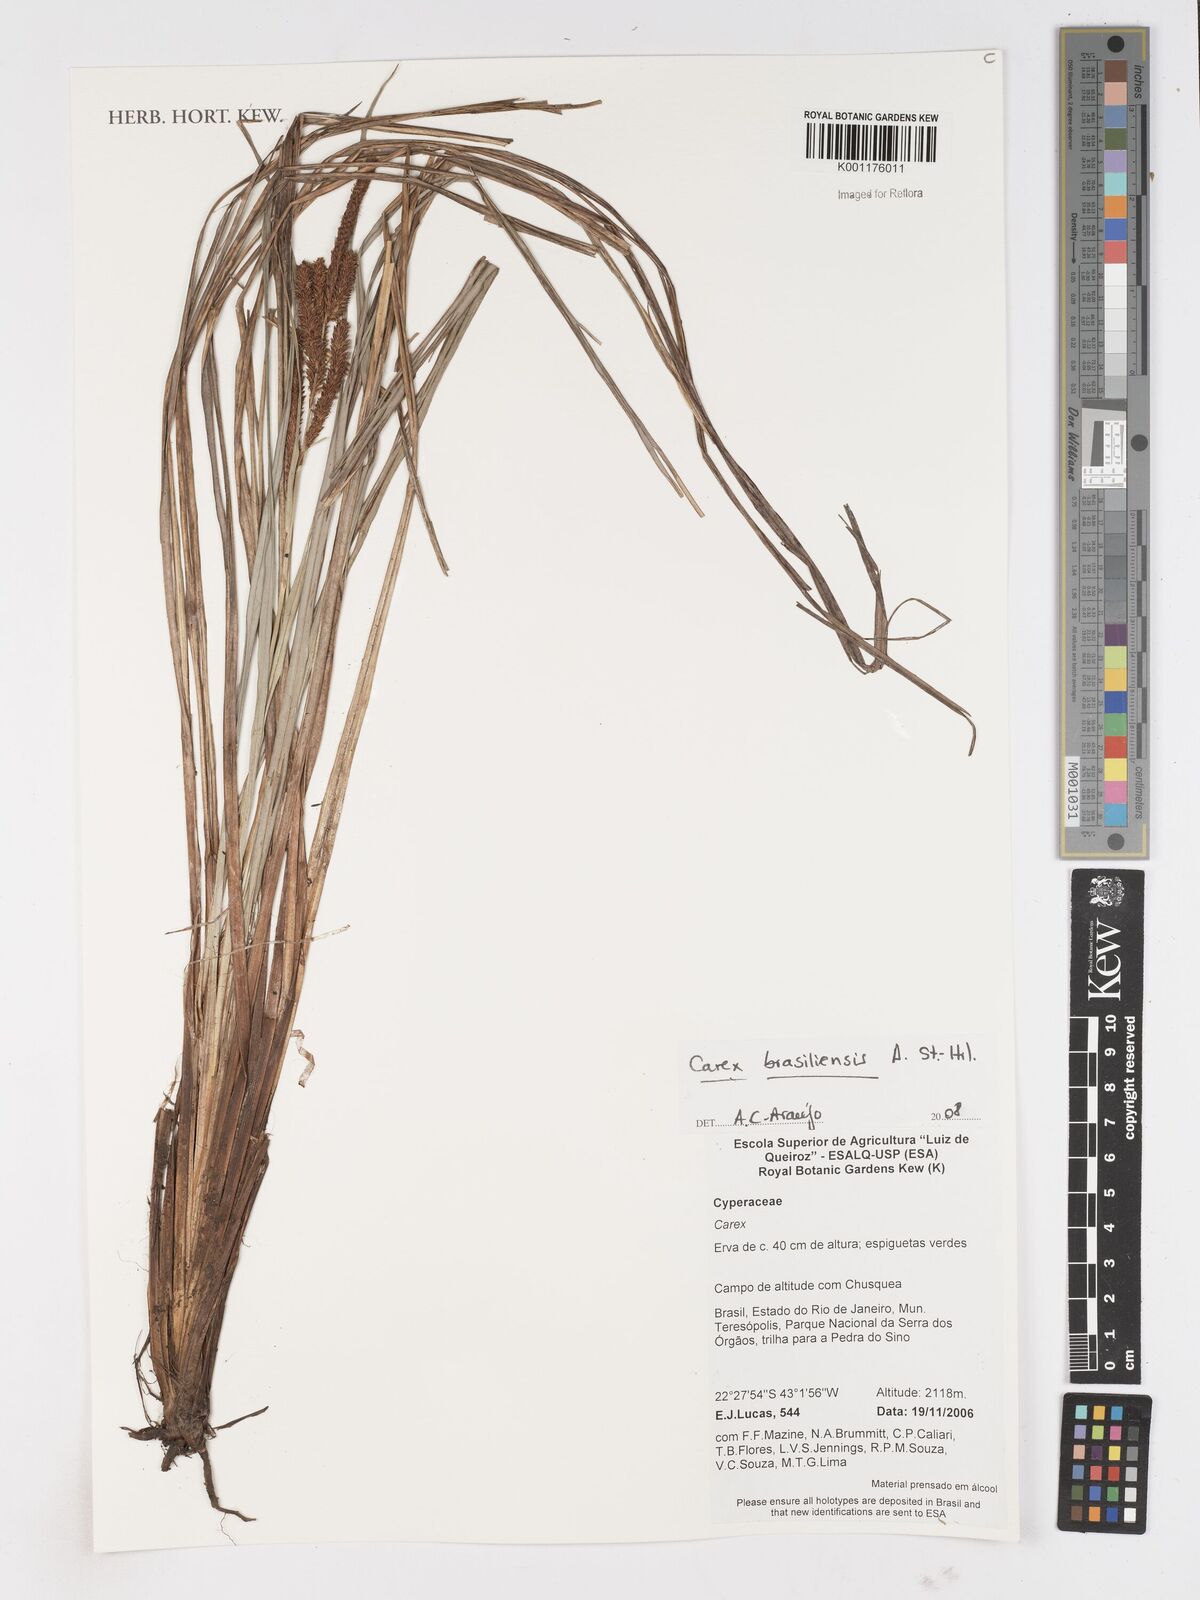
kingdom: Plantae
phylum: Tracheophyta
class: Liliopsida
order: Poales
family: Cyperaceae
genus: Carex
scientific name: Carex brasiliensis
